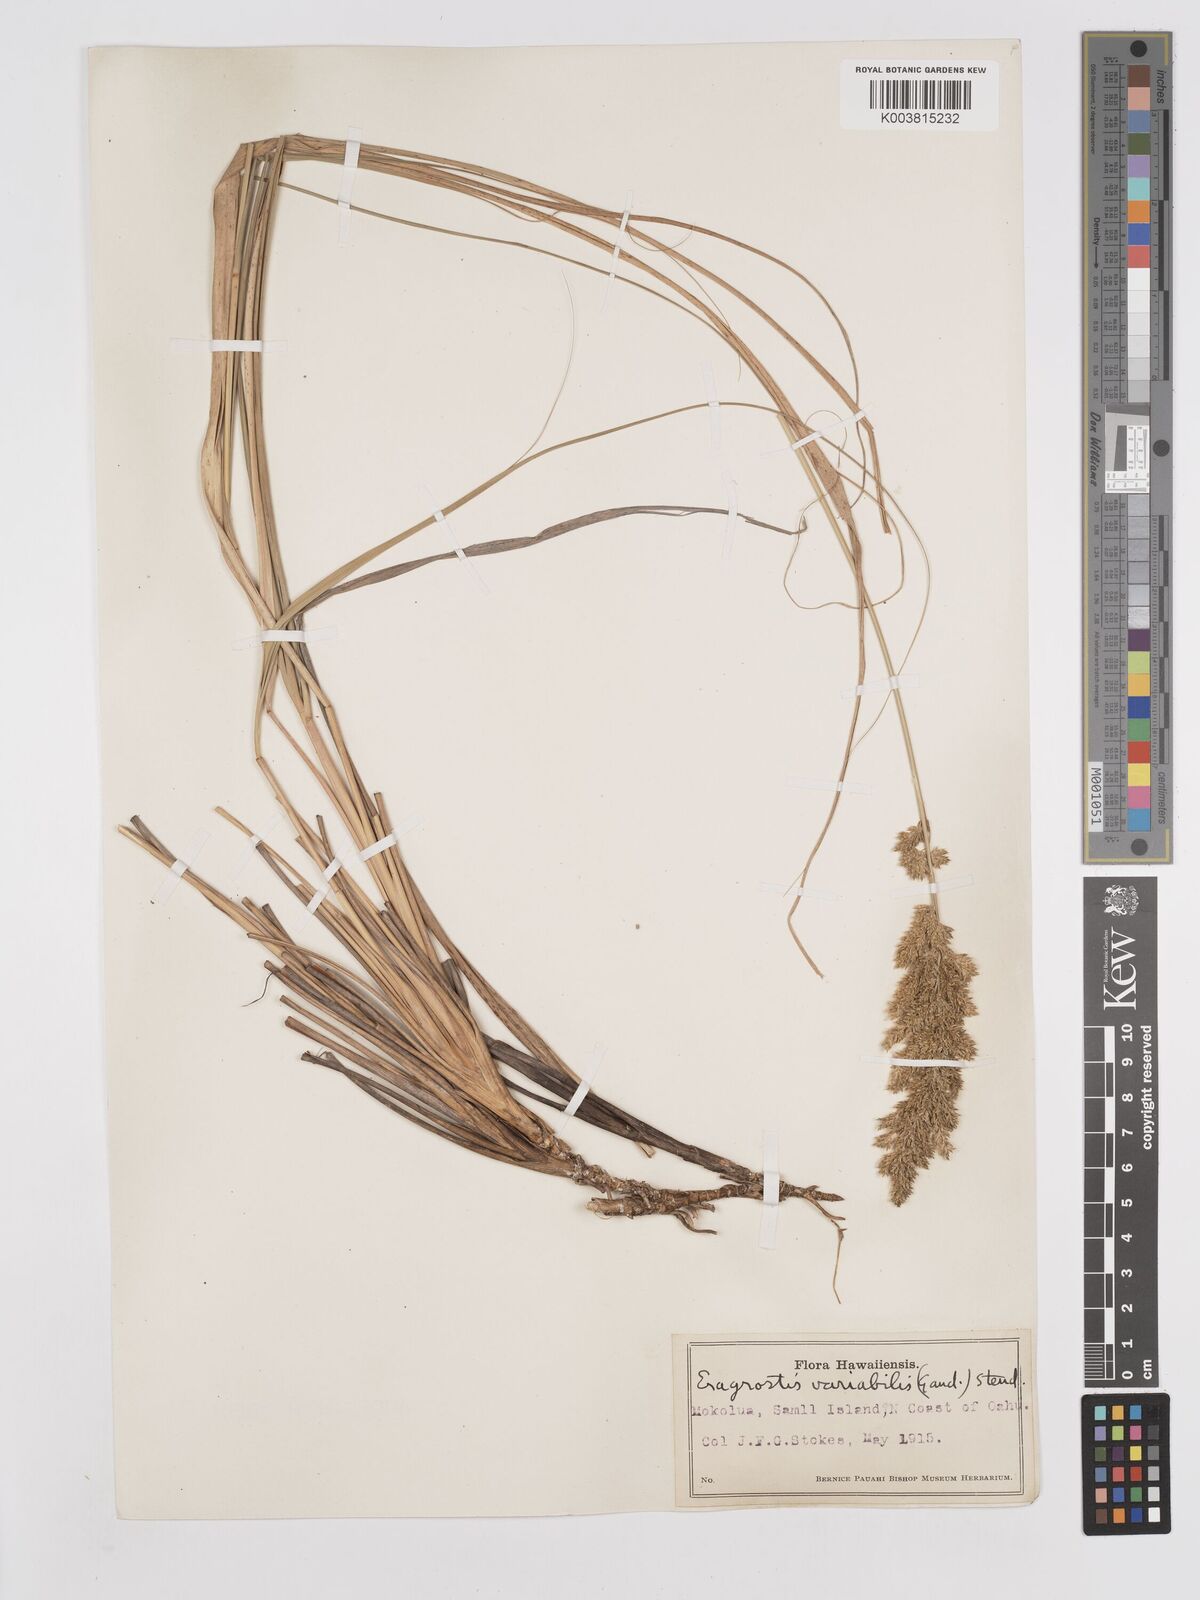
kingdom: Plantae
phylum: Tracheophyta
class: Liliopsida
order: Poales
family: Poaceae
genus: Eragrostis
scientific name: Eragrostis variabilis
